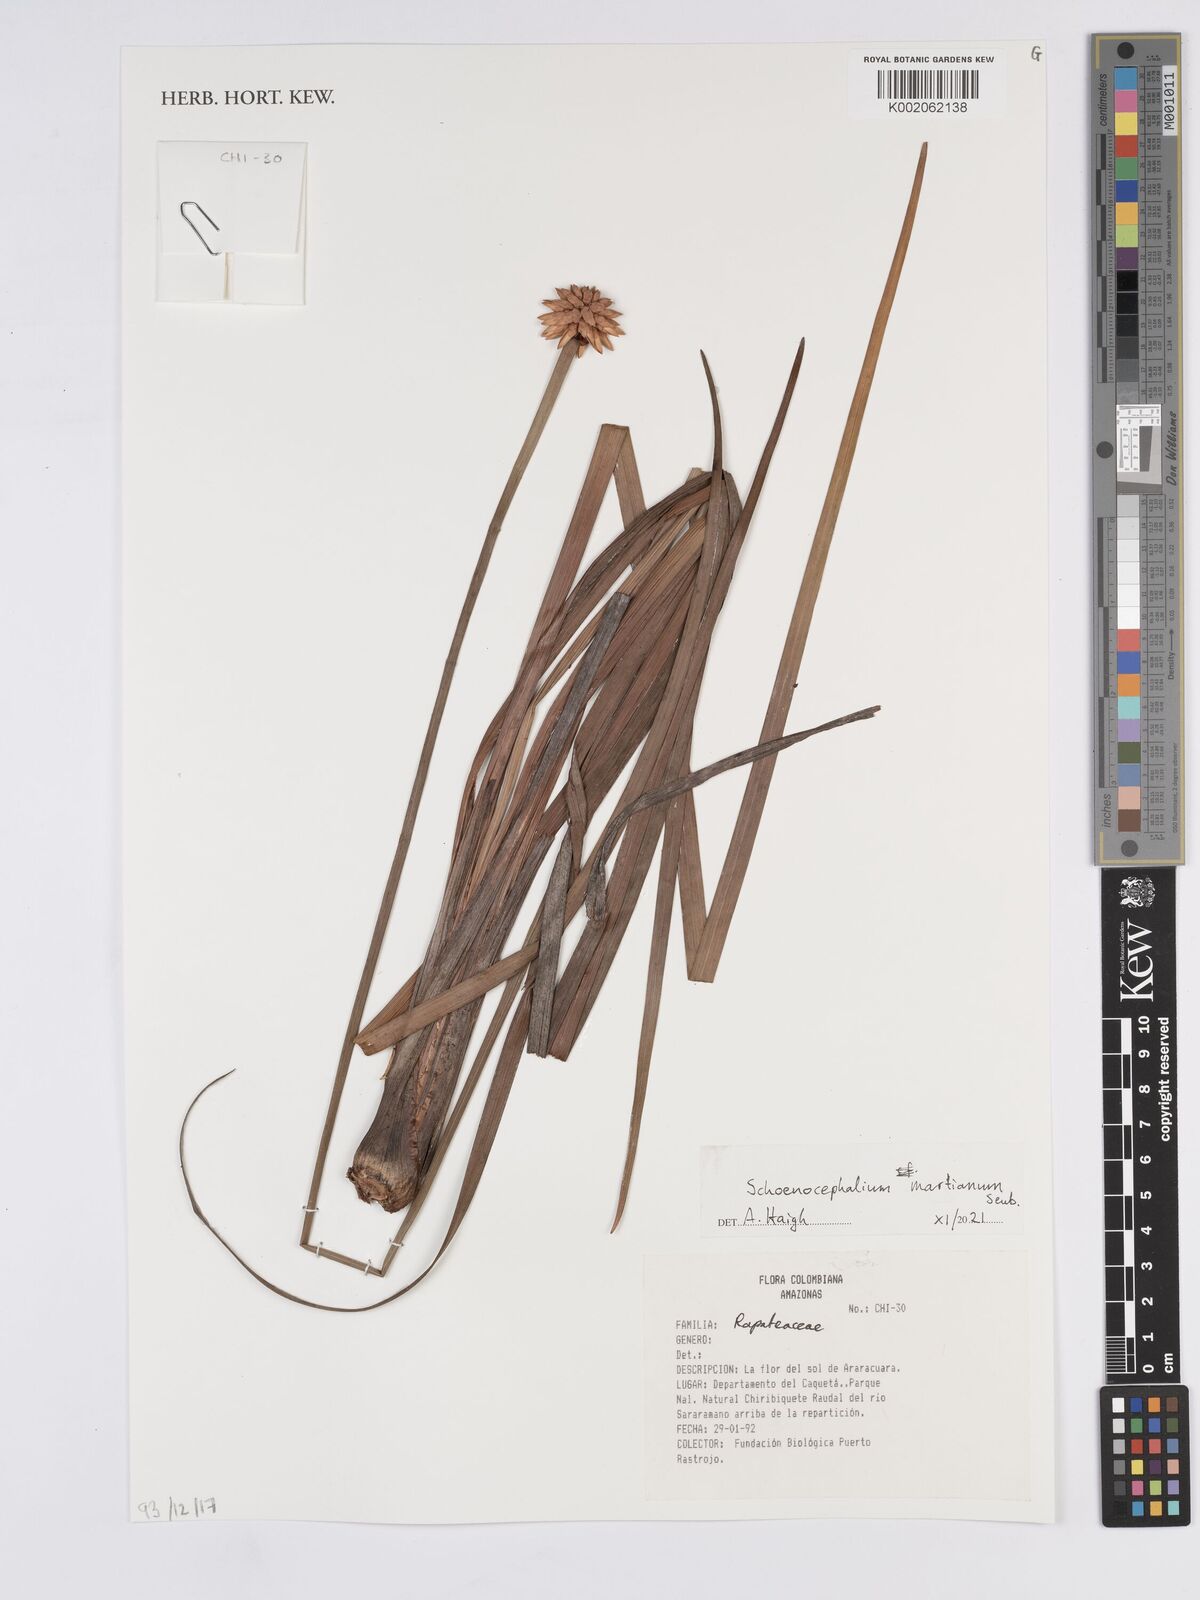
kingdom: Plantae
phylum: Tracheophyta
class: Liliopsida
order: Poales
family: Rapateaceae
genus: Schoenocephalium
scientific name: Schoenocephalium martianum
